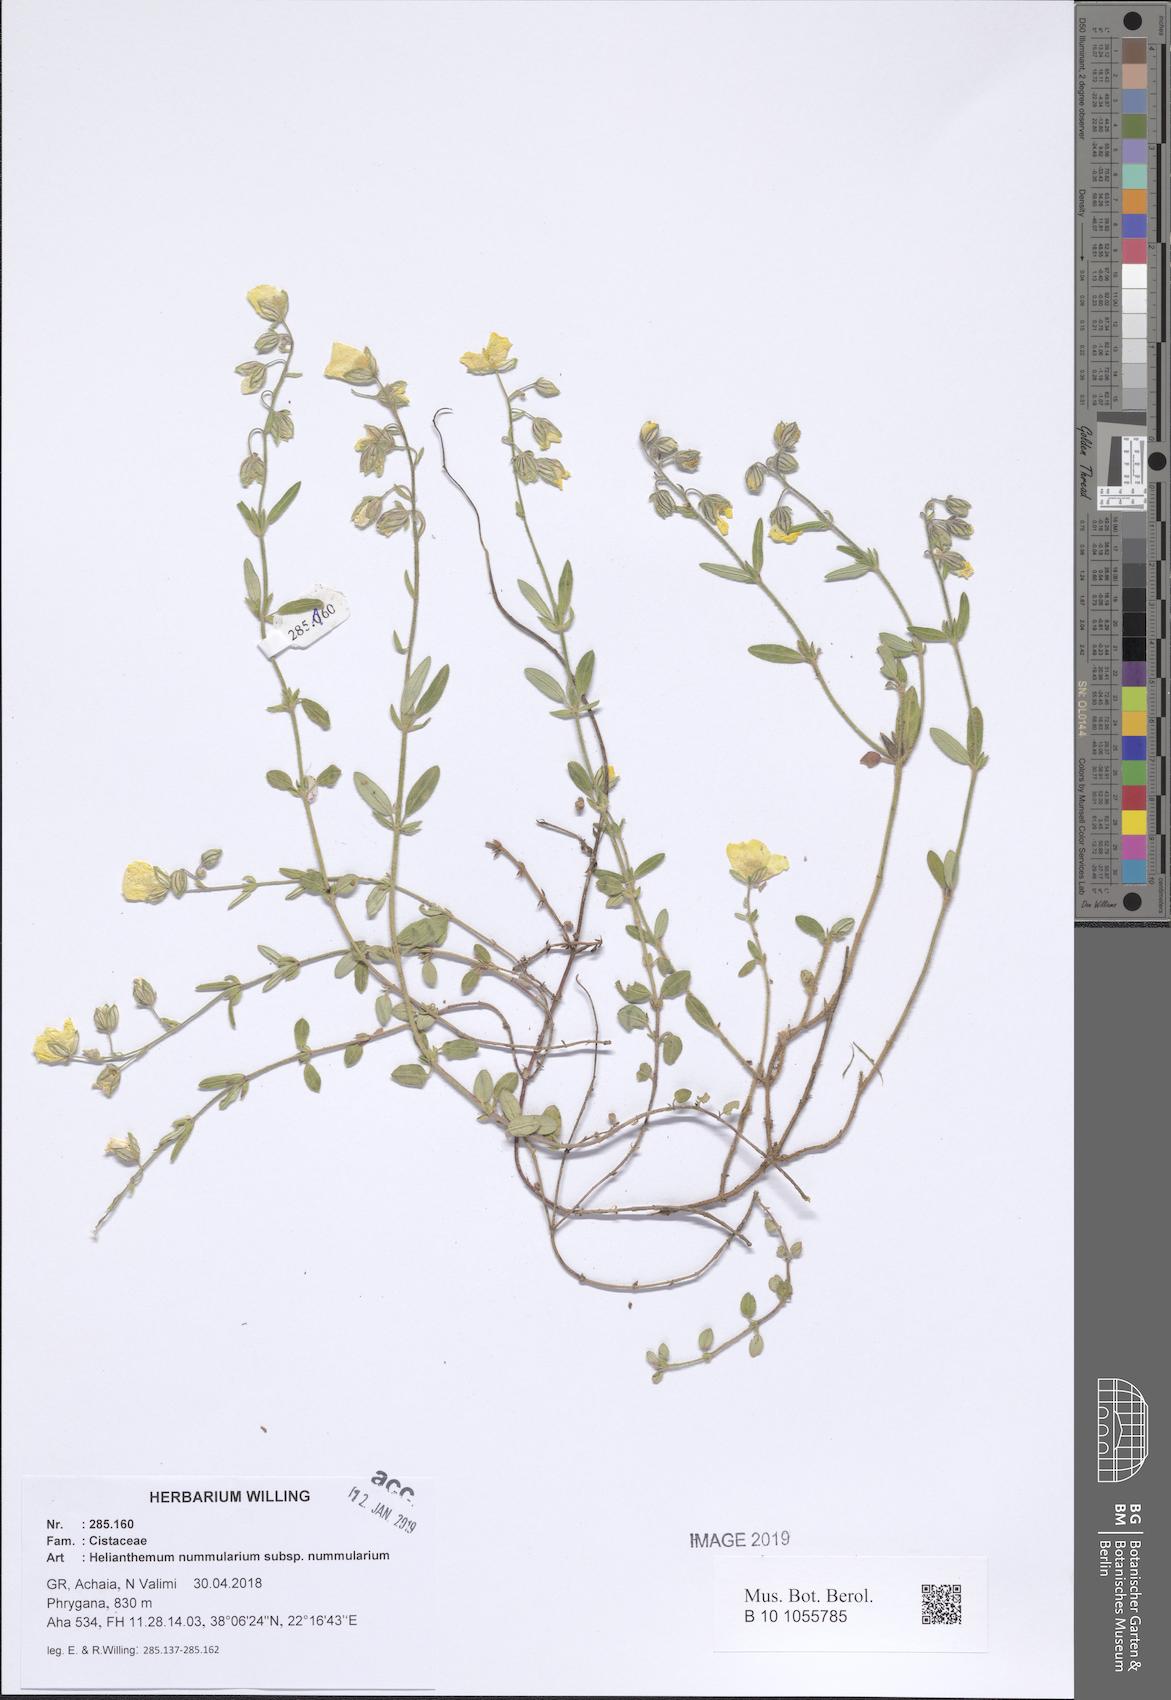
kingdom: Plantae
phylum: Tracheophyta
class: Magnoliopsida
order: Malvales
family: Cistaceae
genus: Helianthemum
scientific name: Helianthemum nummularium
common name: Common rock-rose
